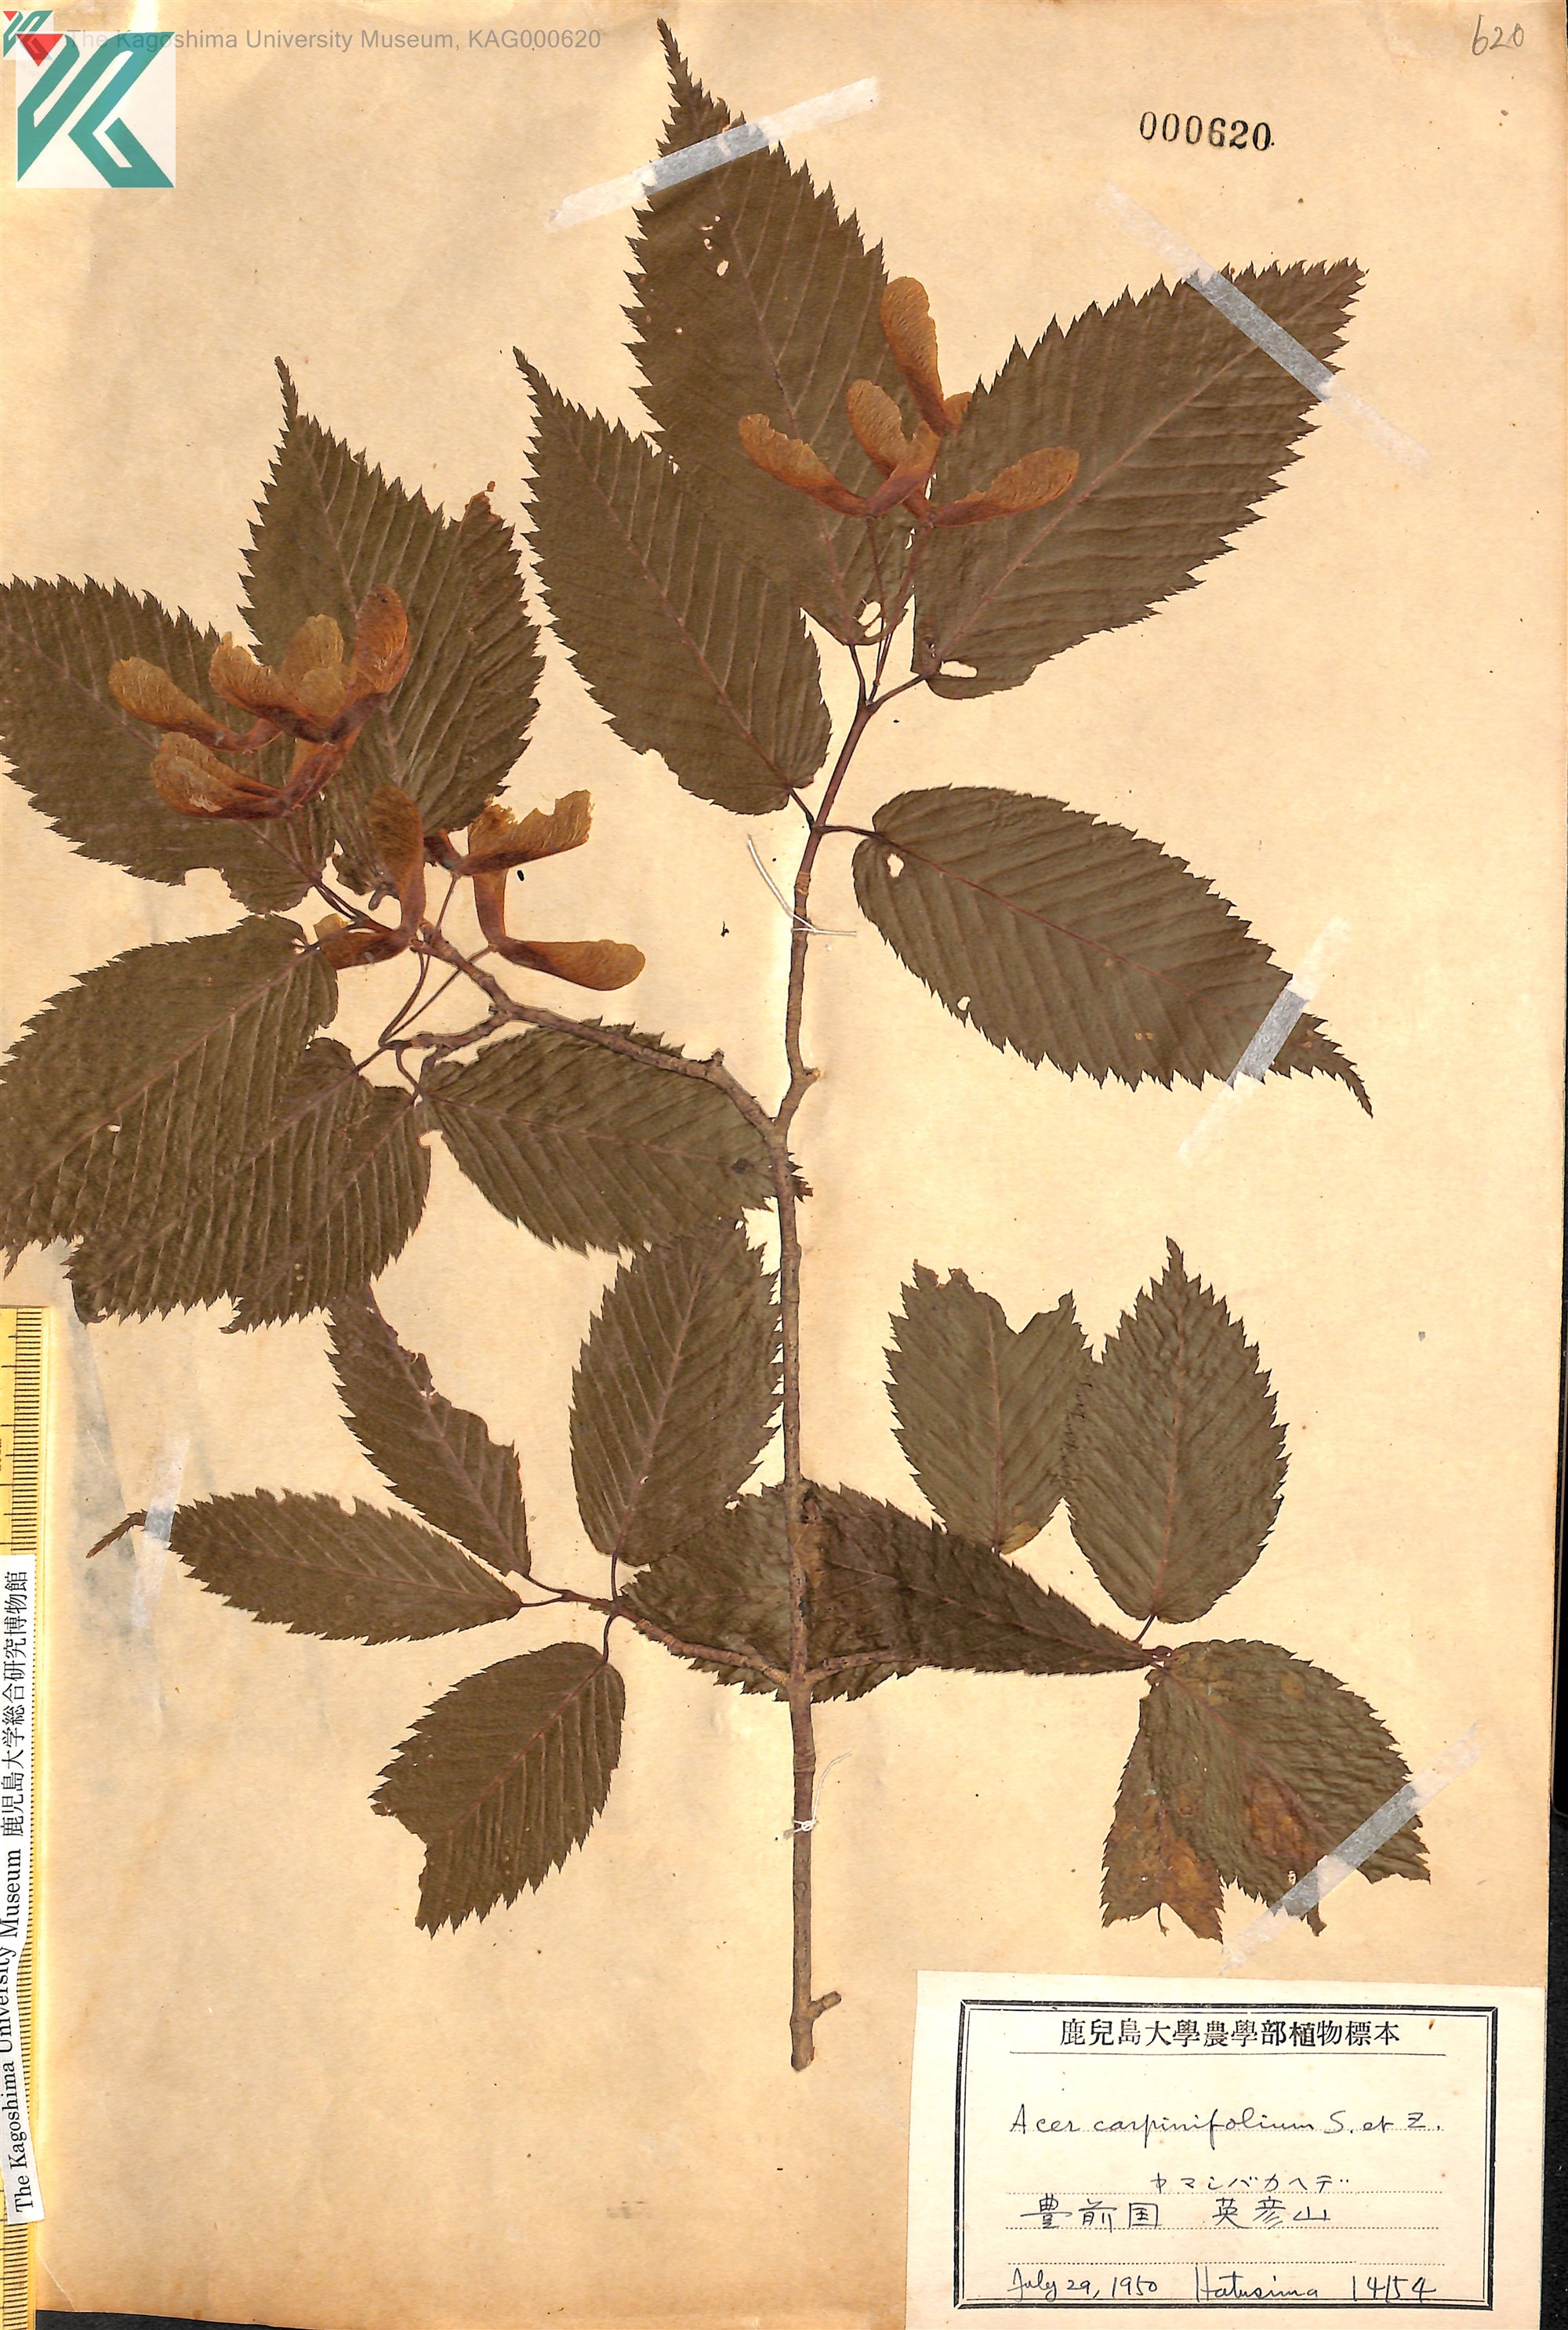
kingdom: Plantae
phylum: Tracheophyta
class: Magnoliopsida
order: Sapindales
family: Sapindaceae
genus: Acer
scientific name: Acer carpinifolium
